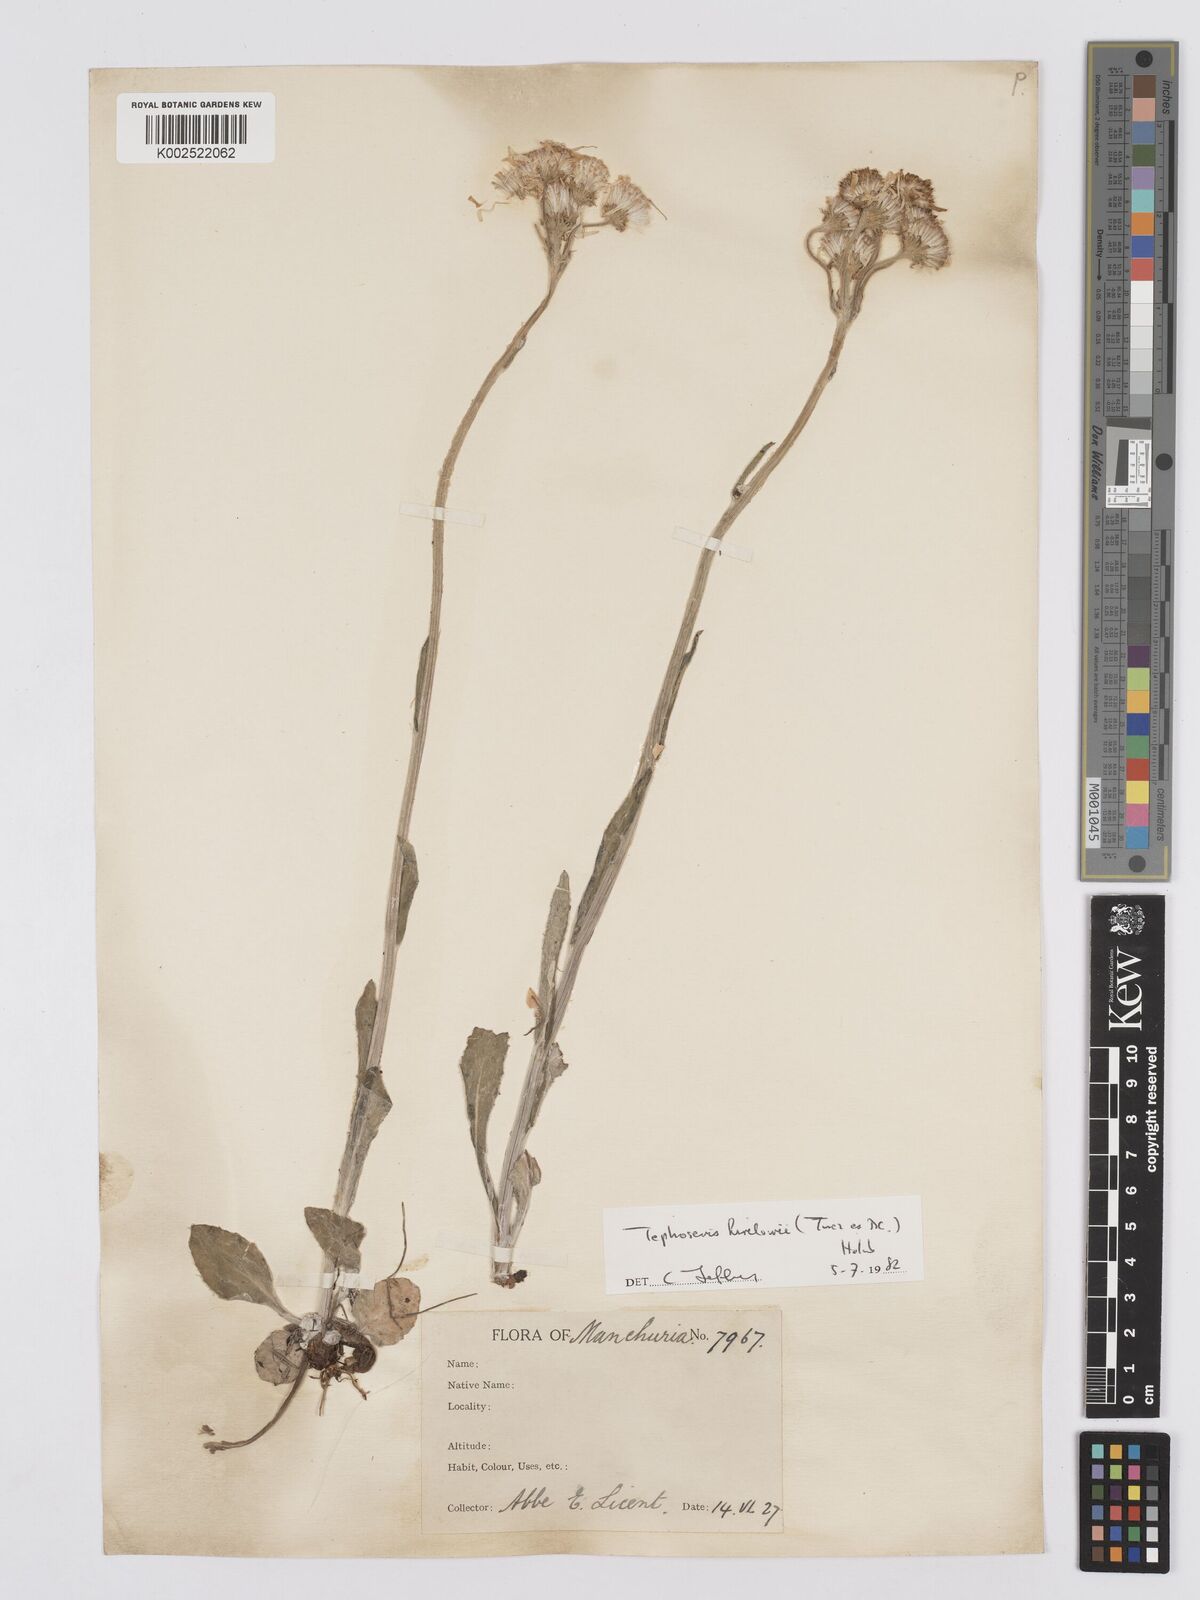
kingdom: Plantae
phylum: Tracheophyta
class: Magnoliopsida
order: Asterales
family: Asteraceae
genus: Tephroseris
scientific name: Tephroseris kirilowii
